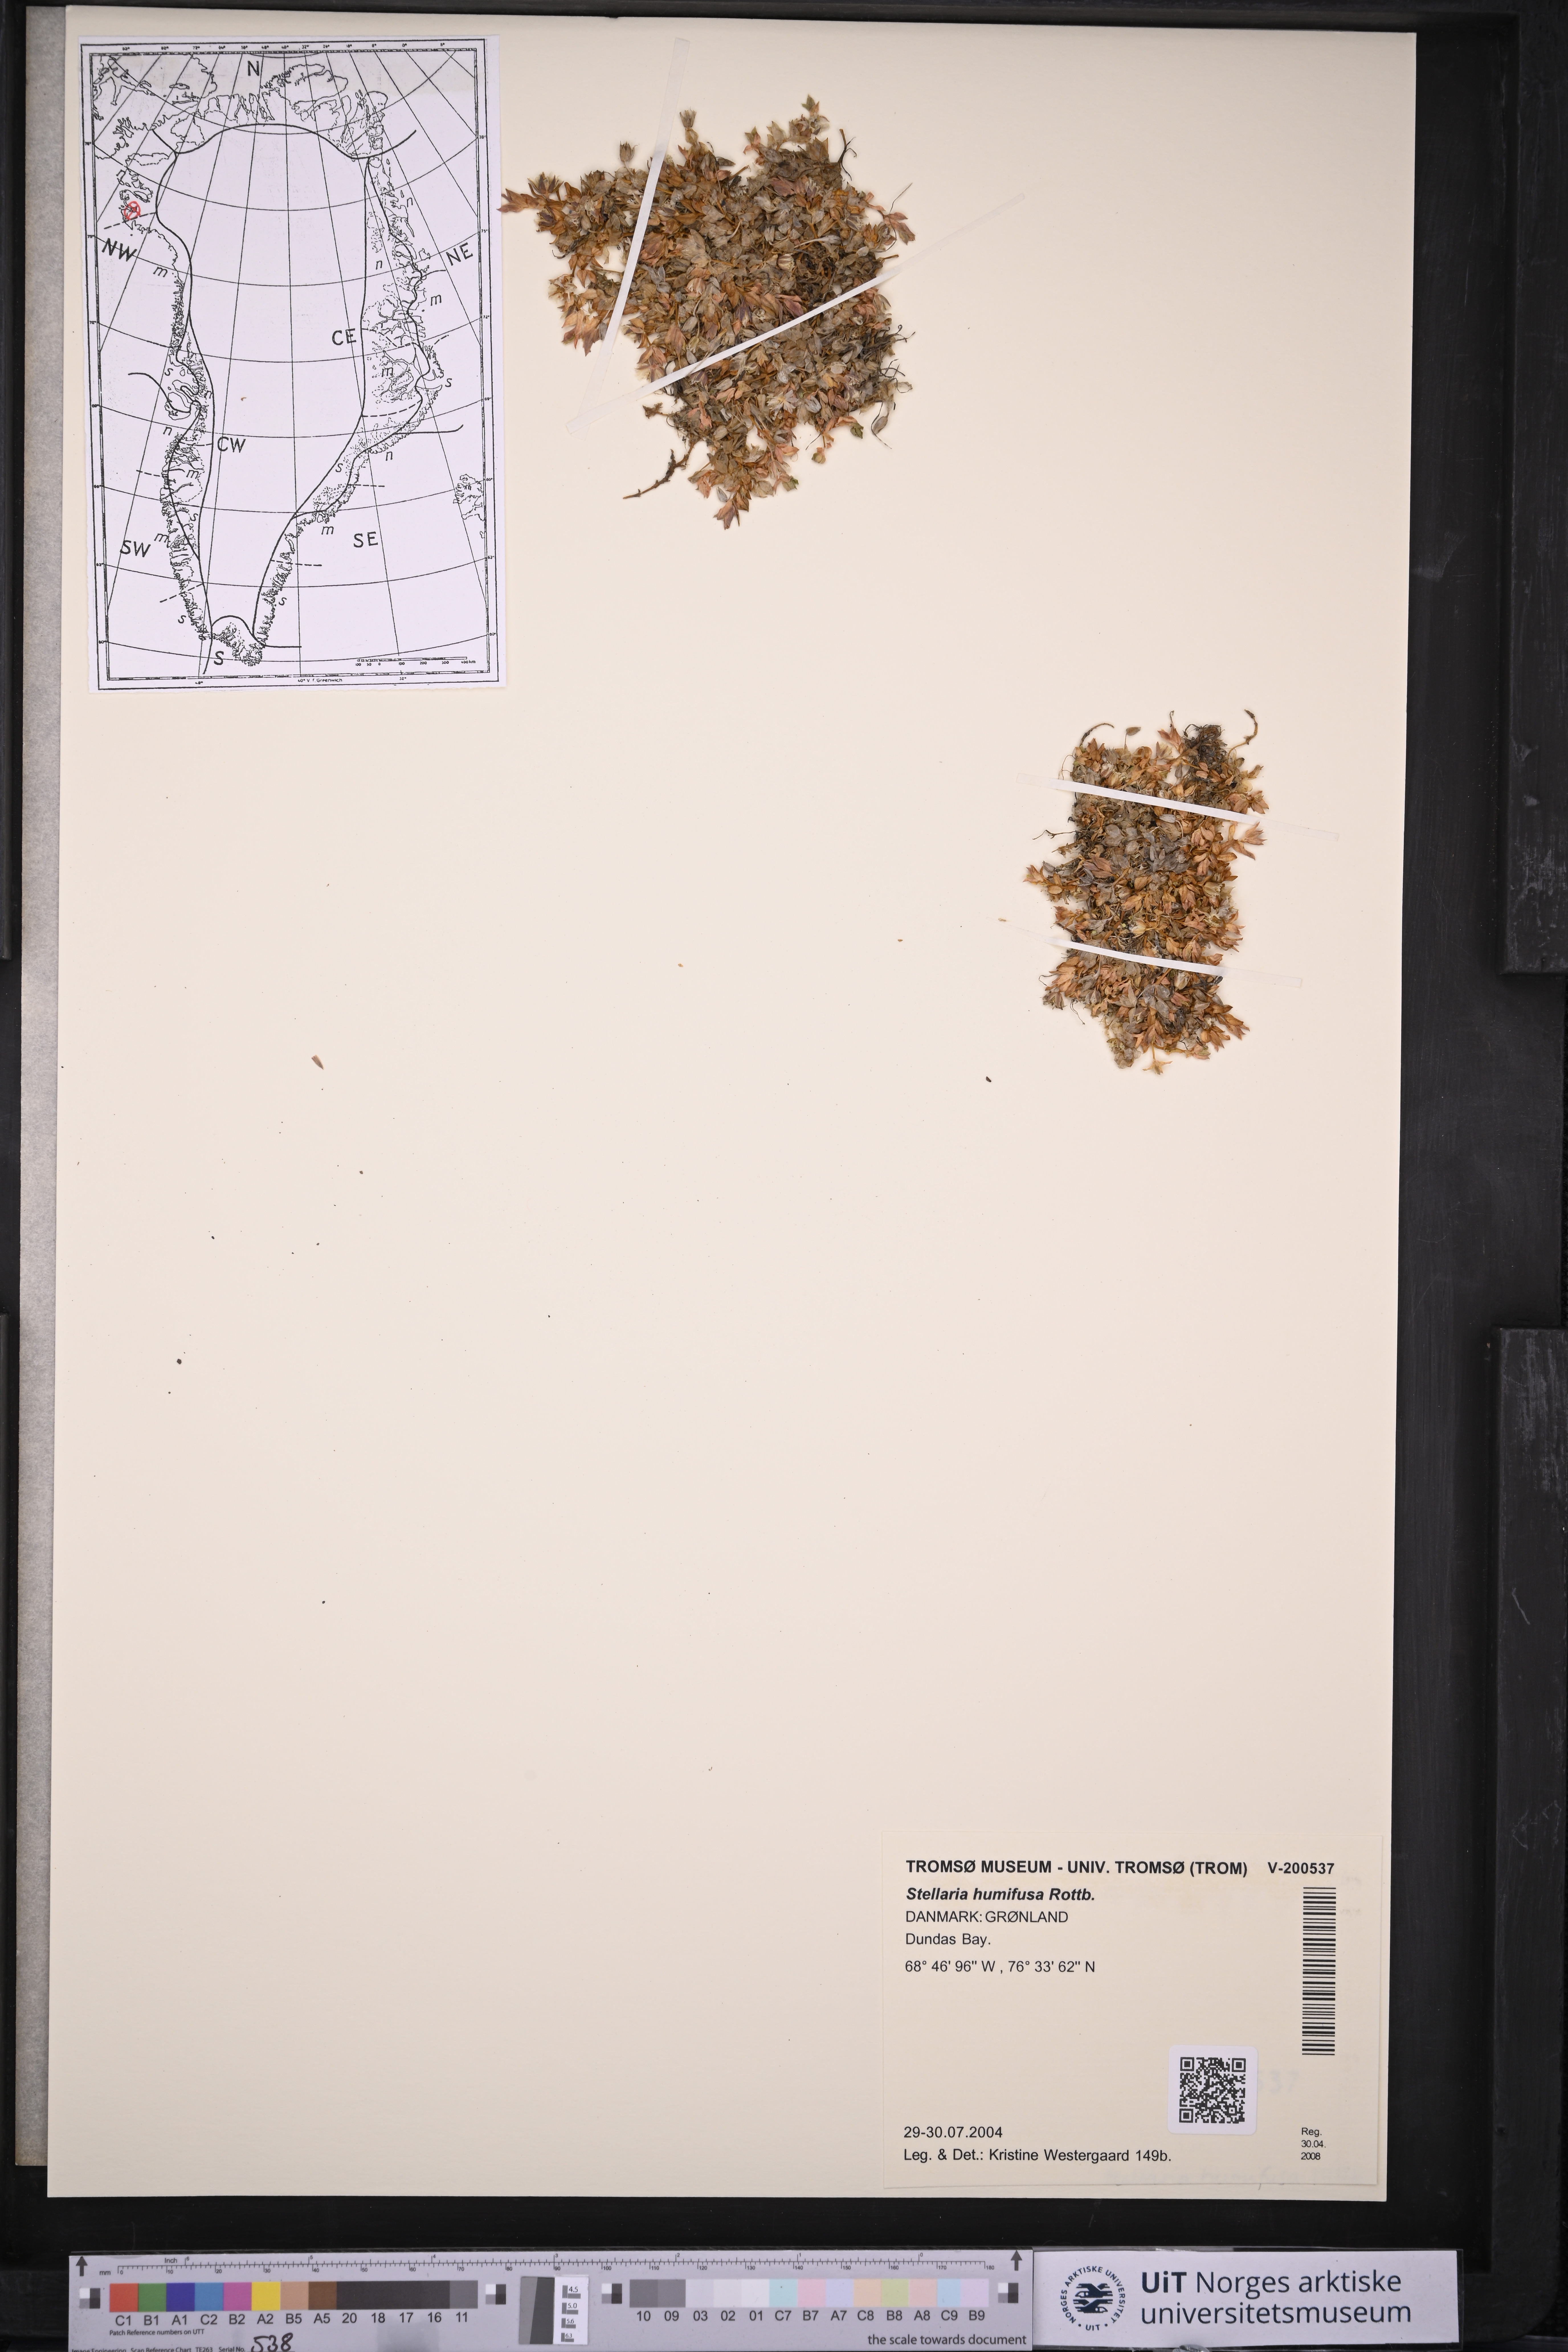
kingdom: Plantae
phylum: Tracheophyta
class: Magnoliopsida
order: Caryophyllales
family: Caryophyllaceae
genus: Stellaria
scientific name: Stellaria humifusa
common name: Creeping starwort
